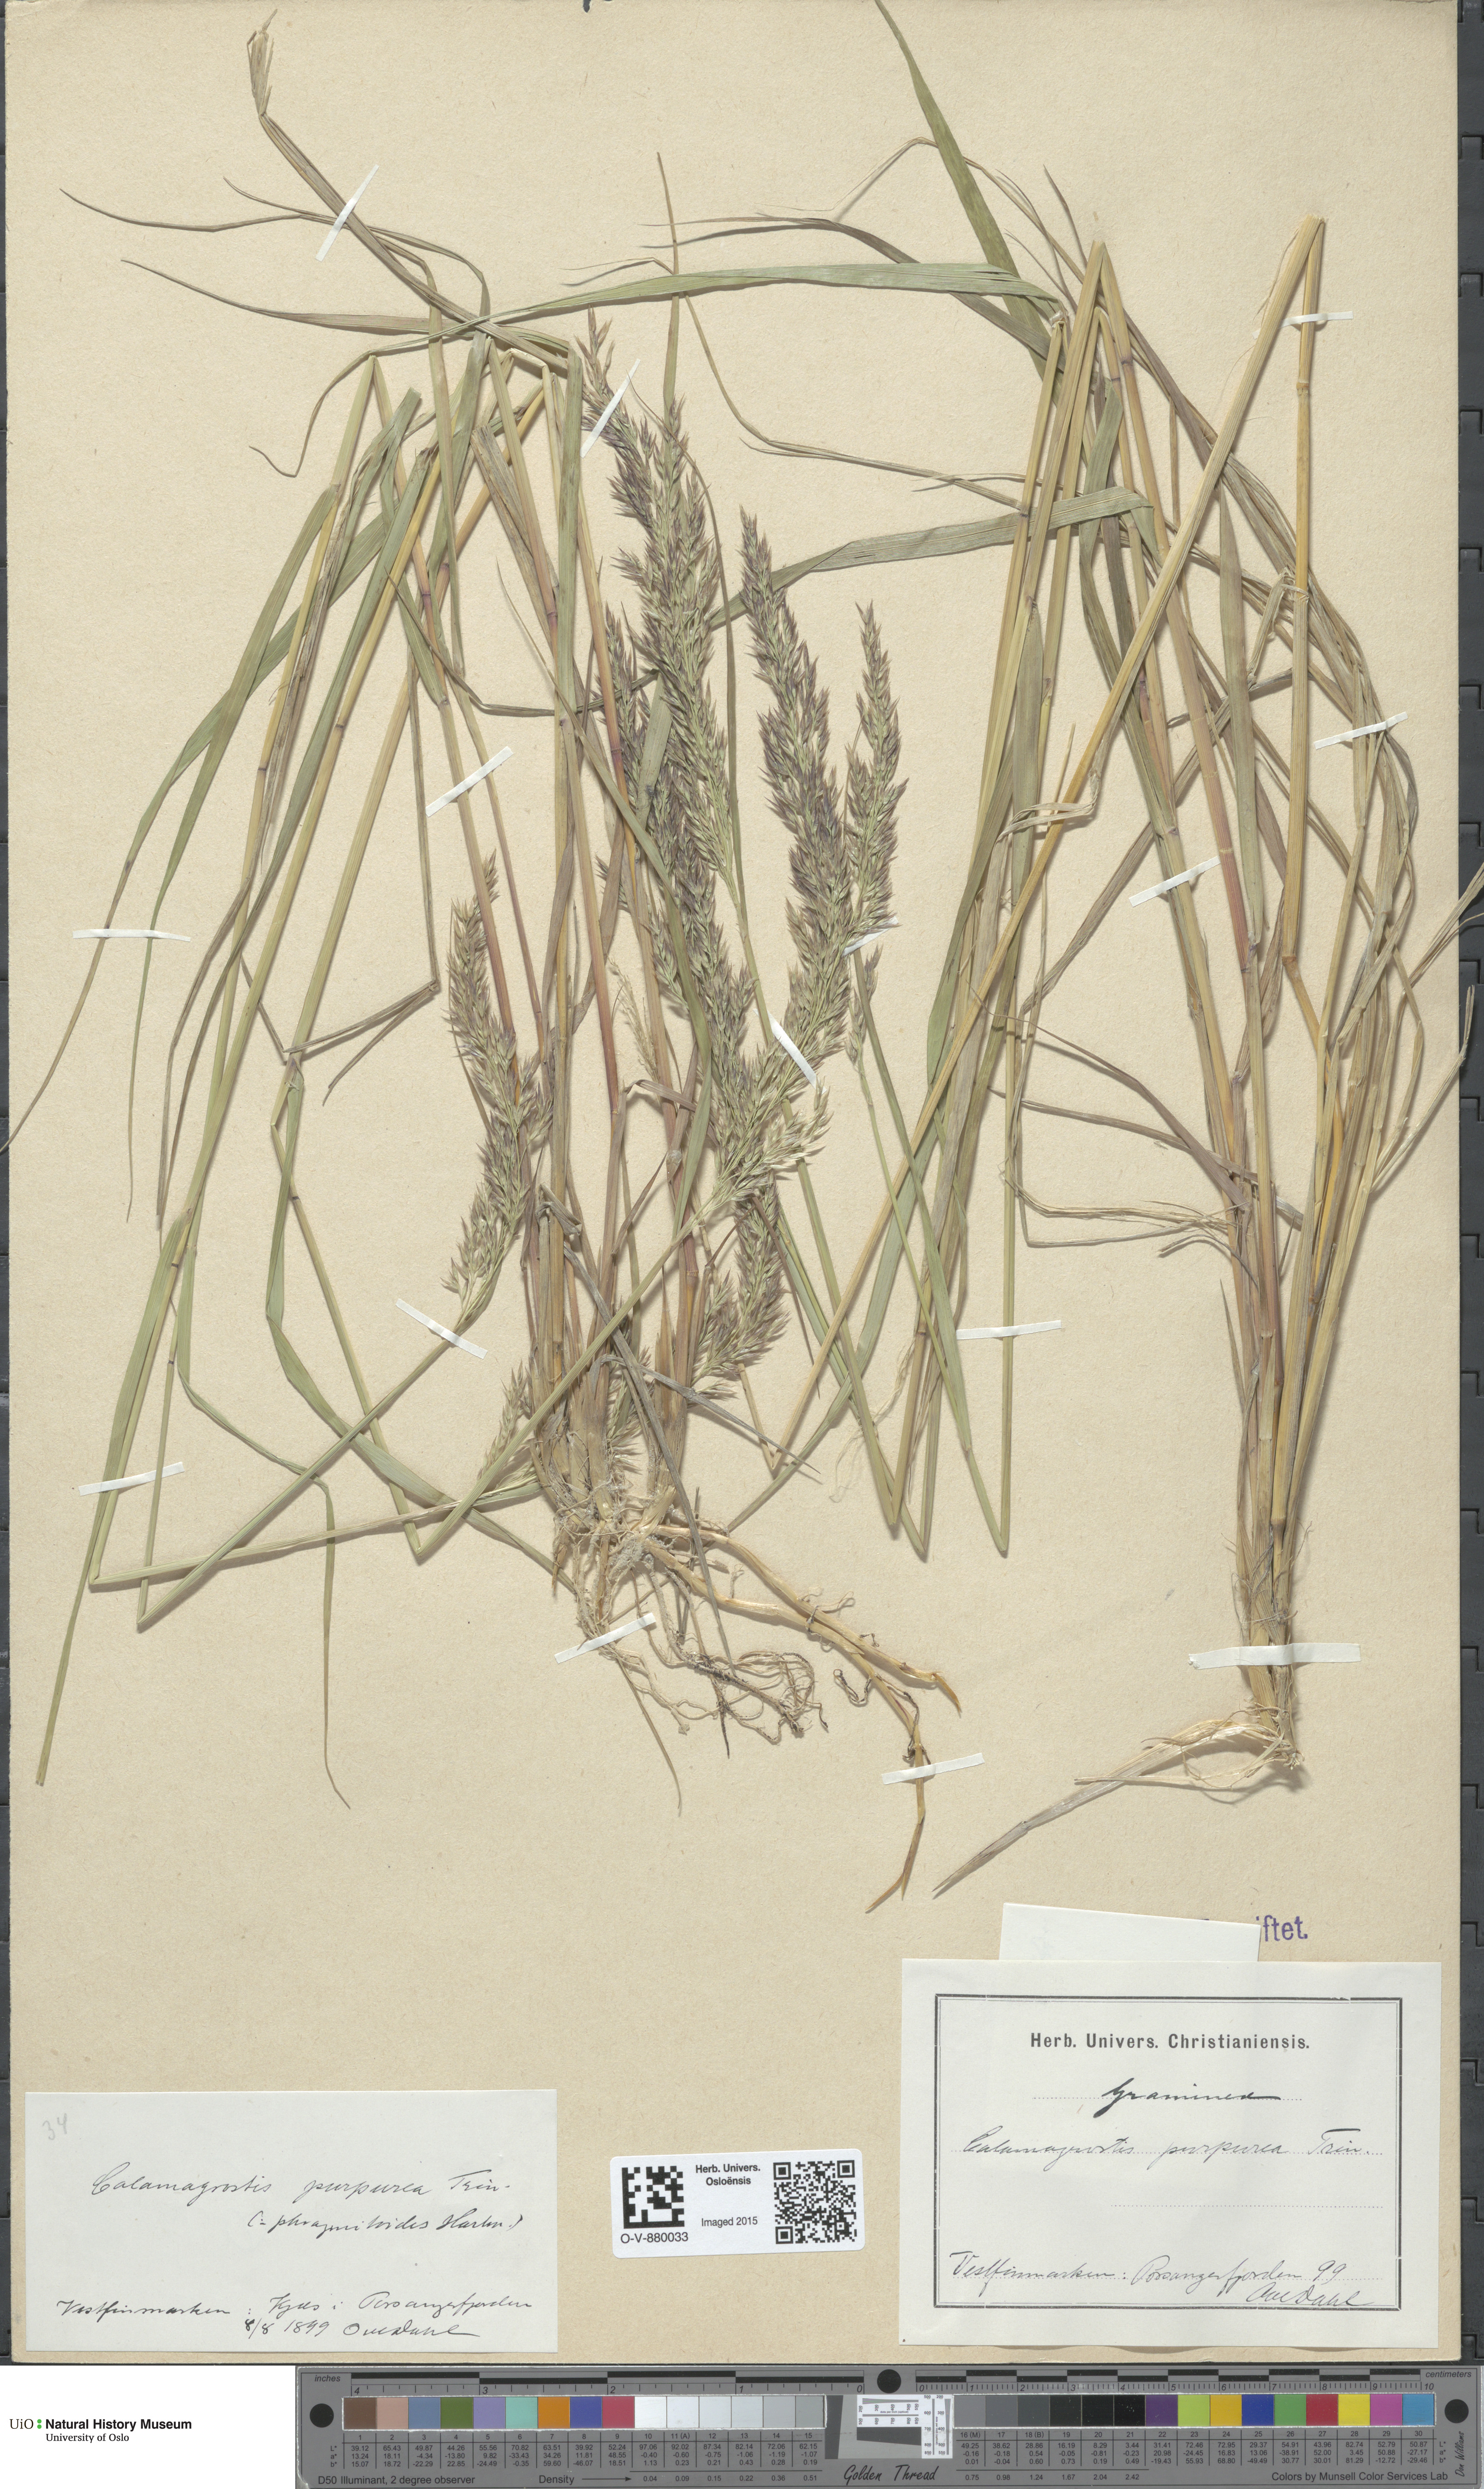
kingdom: Plantae
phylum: Tracheophyta
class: Liliopsida
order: Poales
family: Poaceae
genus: Calamagrostis
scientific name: Calamagrostis purpurea
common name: Scandinavian small-reed
